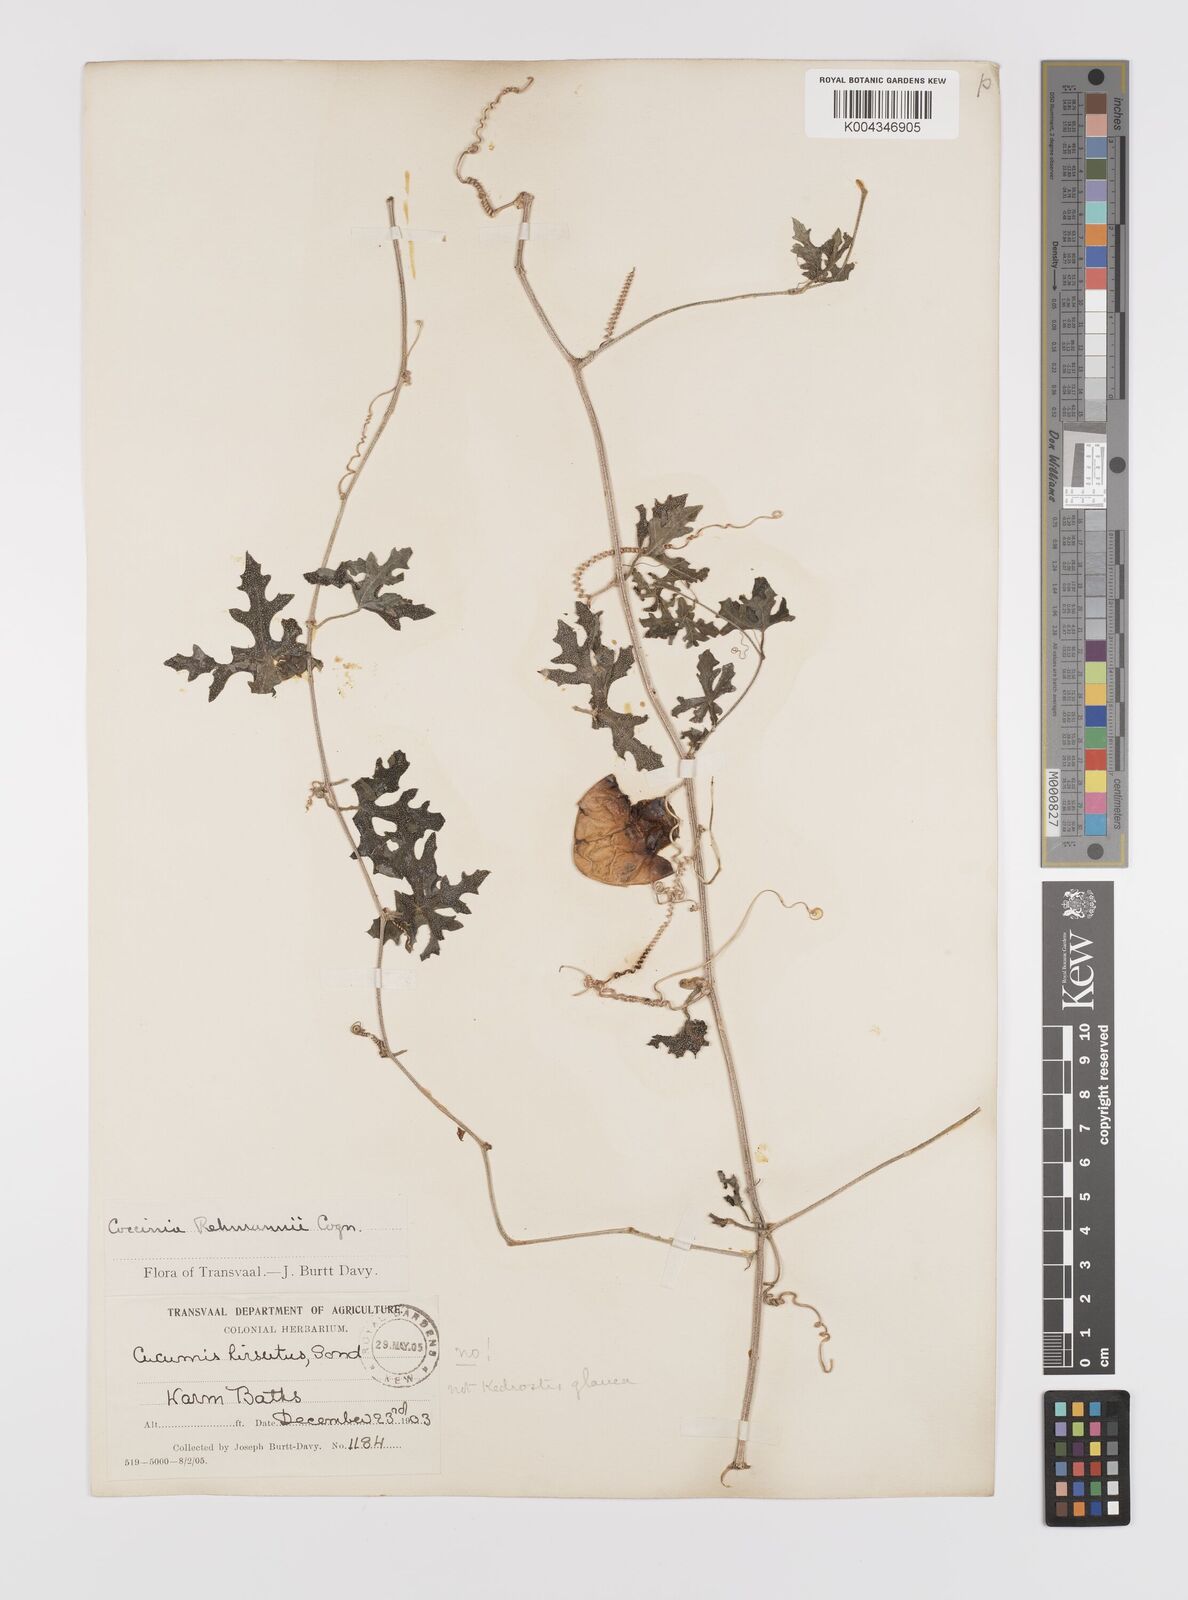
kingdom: Plantae
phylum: Tracheophyta
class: Magnoliopsida
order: Cucurbitales
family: Cucurbitaceae
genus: Coccinia
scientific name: Coccinia rehmannii
